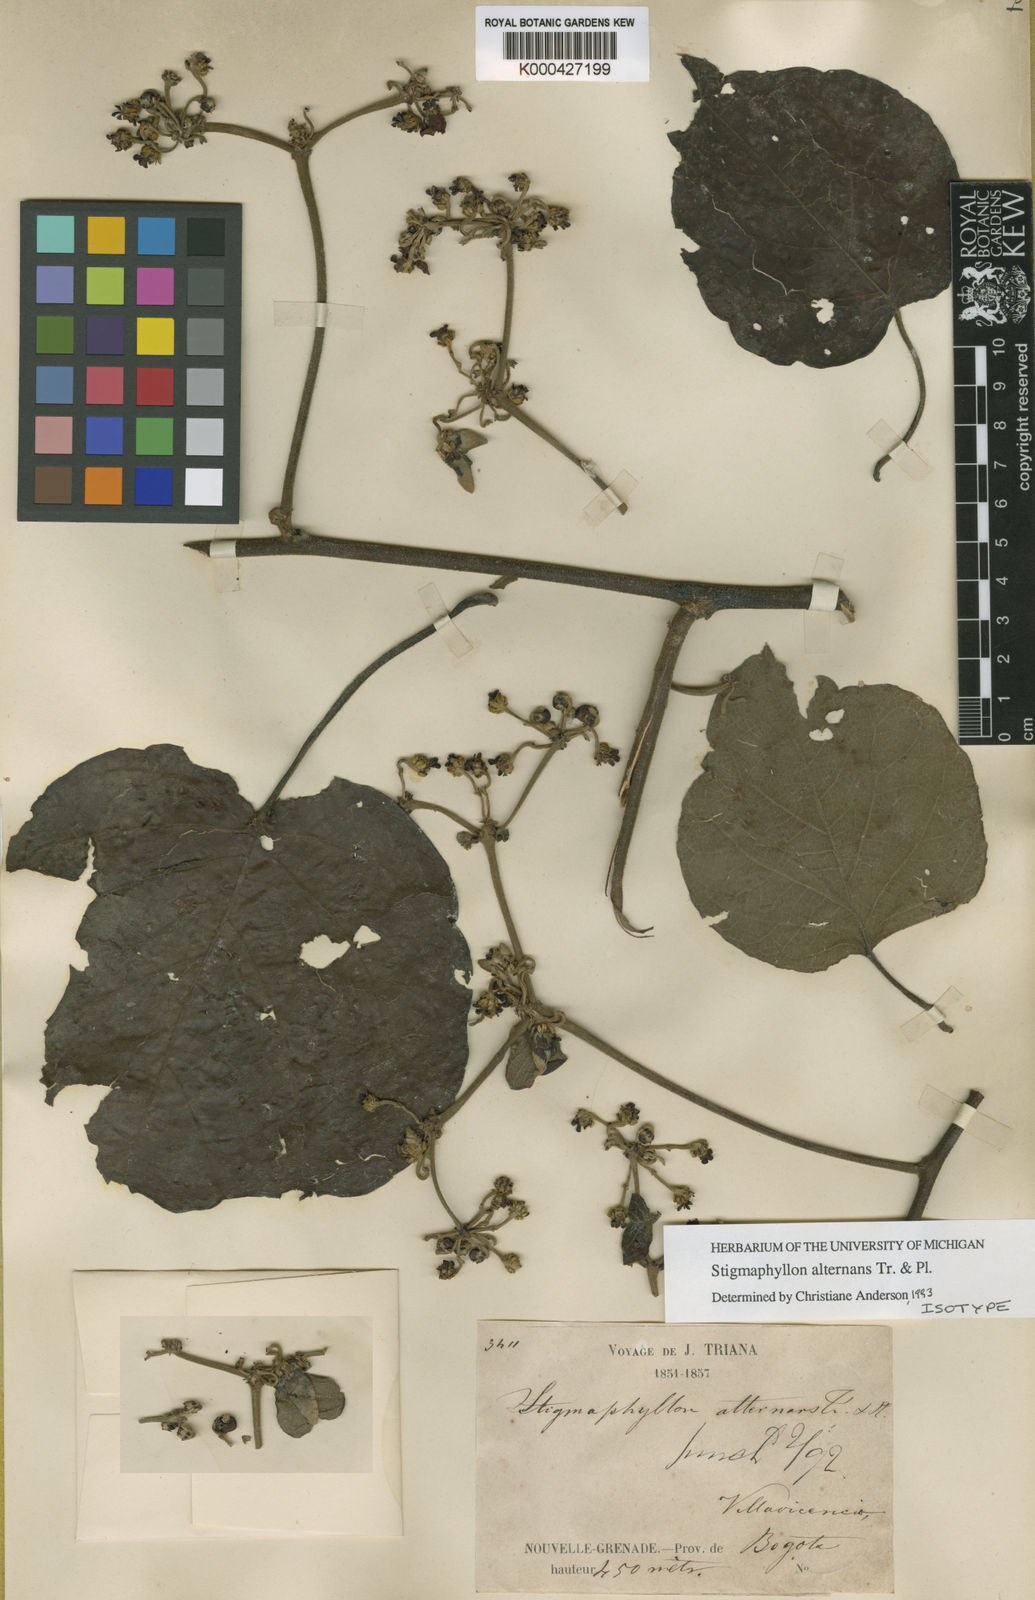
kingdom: Plantae
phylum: Tracheophyta
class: Magnoliopsida
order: Malpighiales
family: Malpighiaceae
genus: Stigmaphyllon
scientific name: Stigmaphyllon alternans
